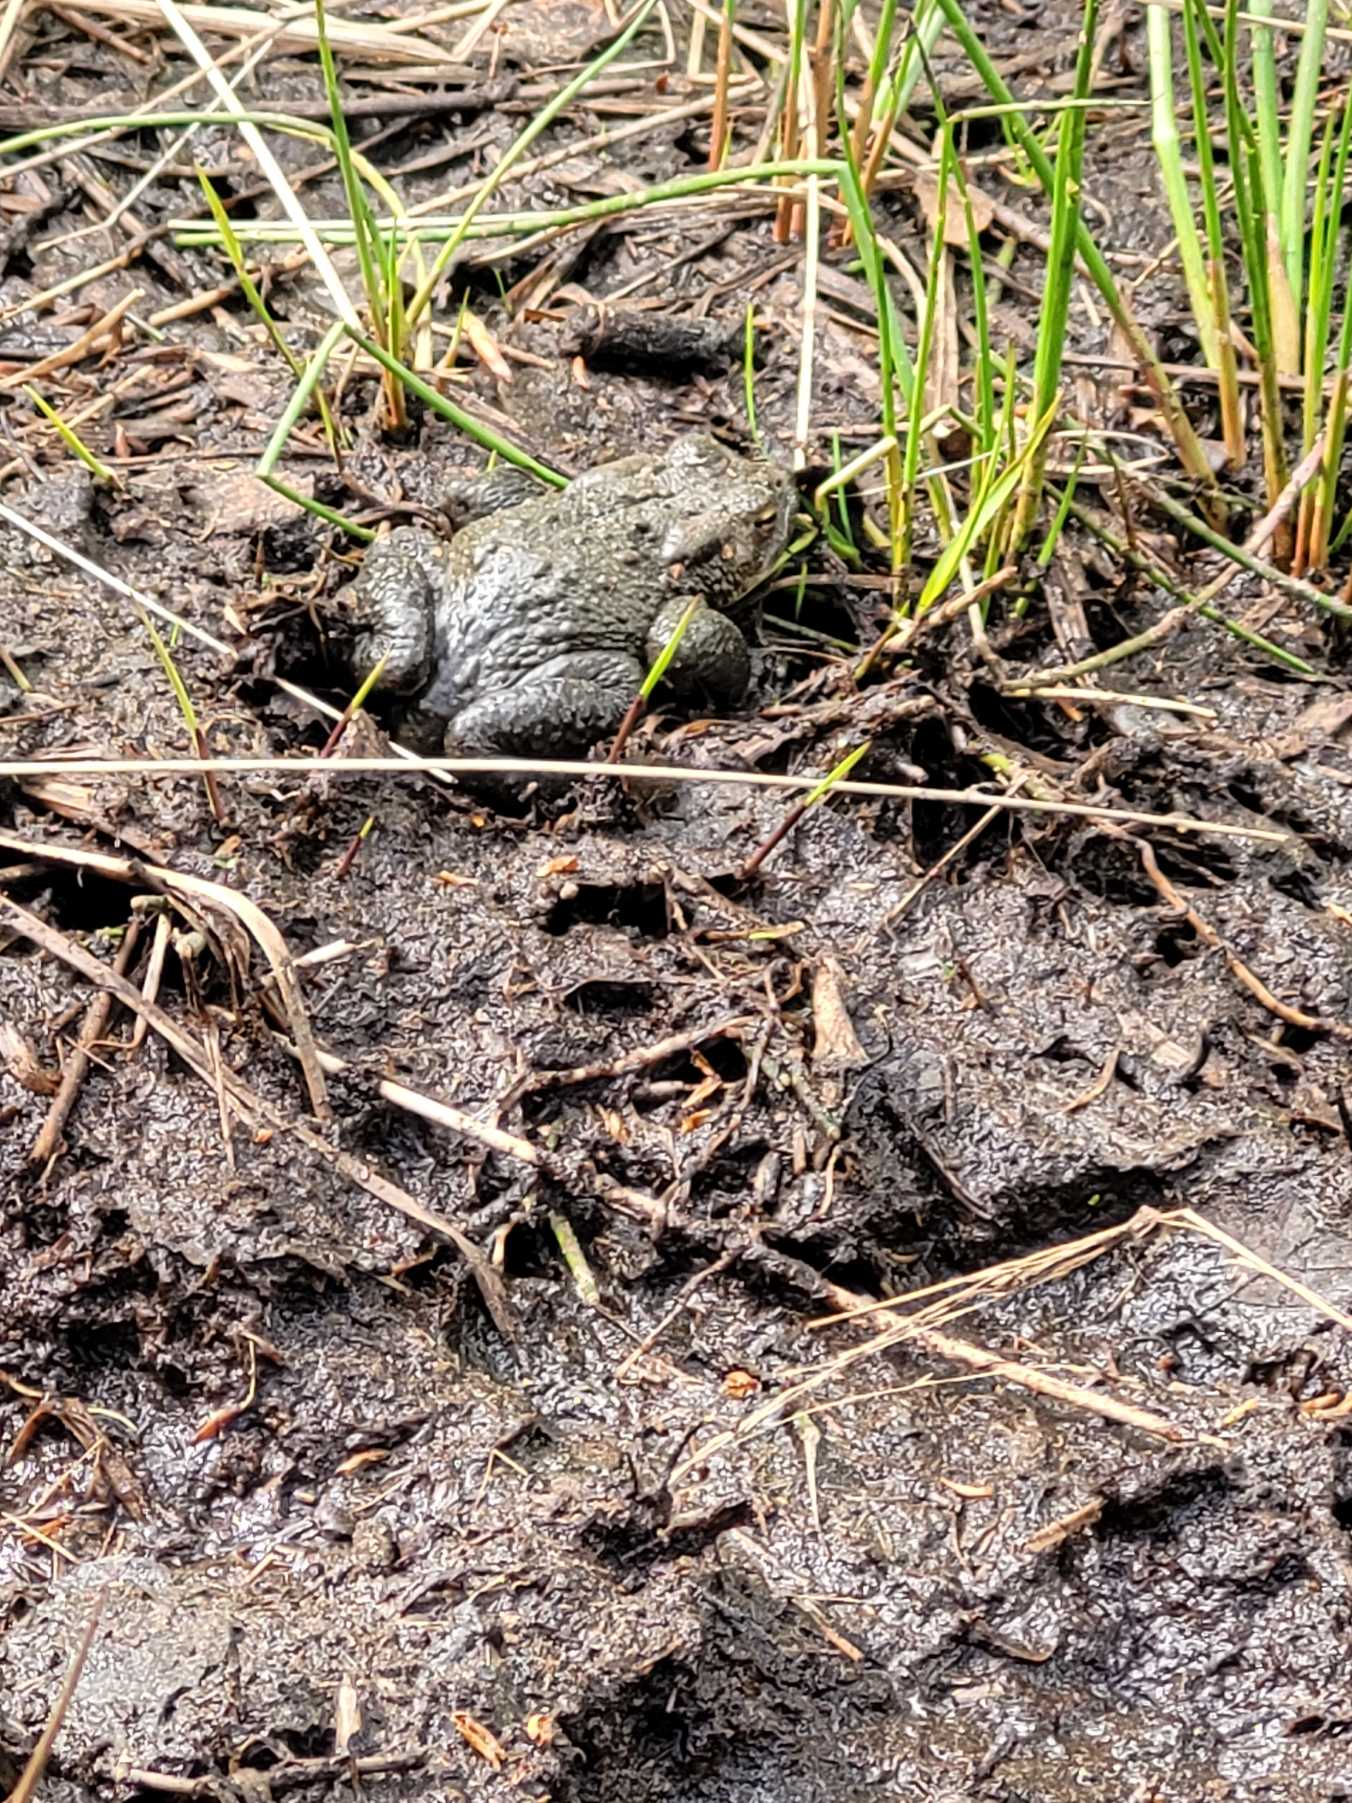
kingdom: Animalia
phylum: Chordata
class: Amphibia
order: Anura
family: Bufonidae
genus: Bufo
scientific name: Bufo bufo
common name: Skrubtudse
